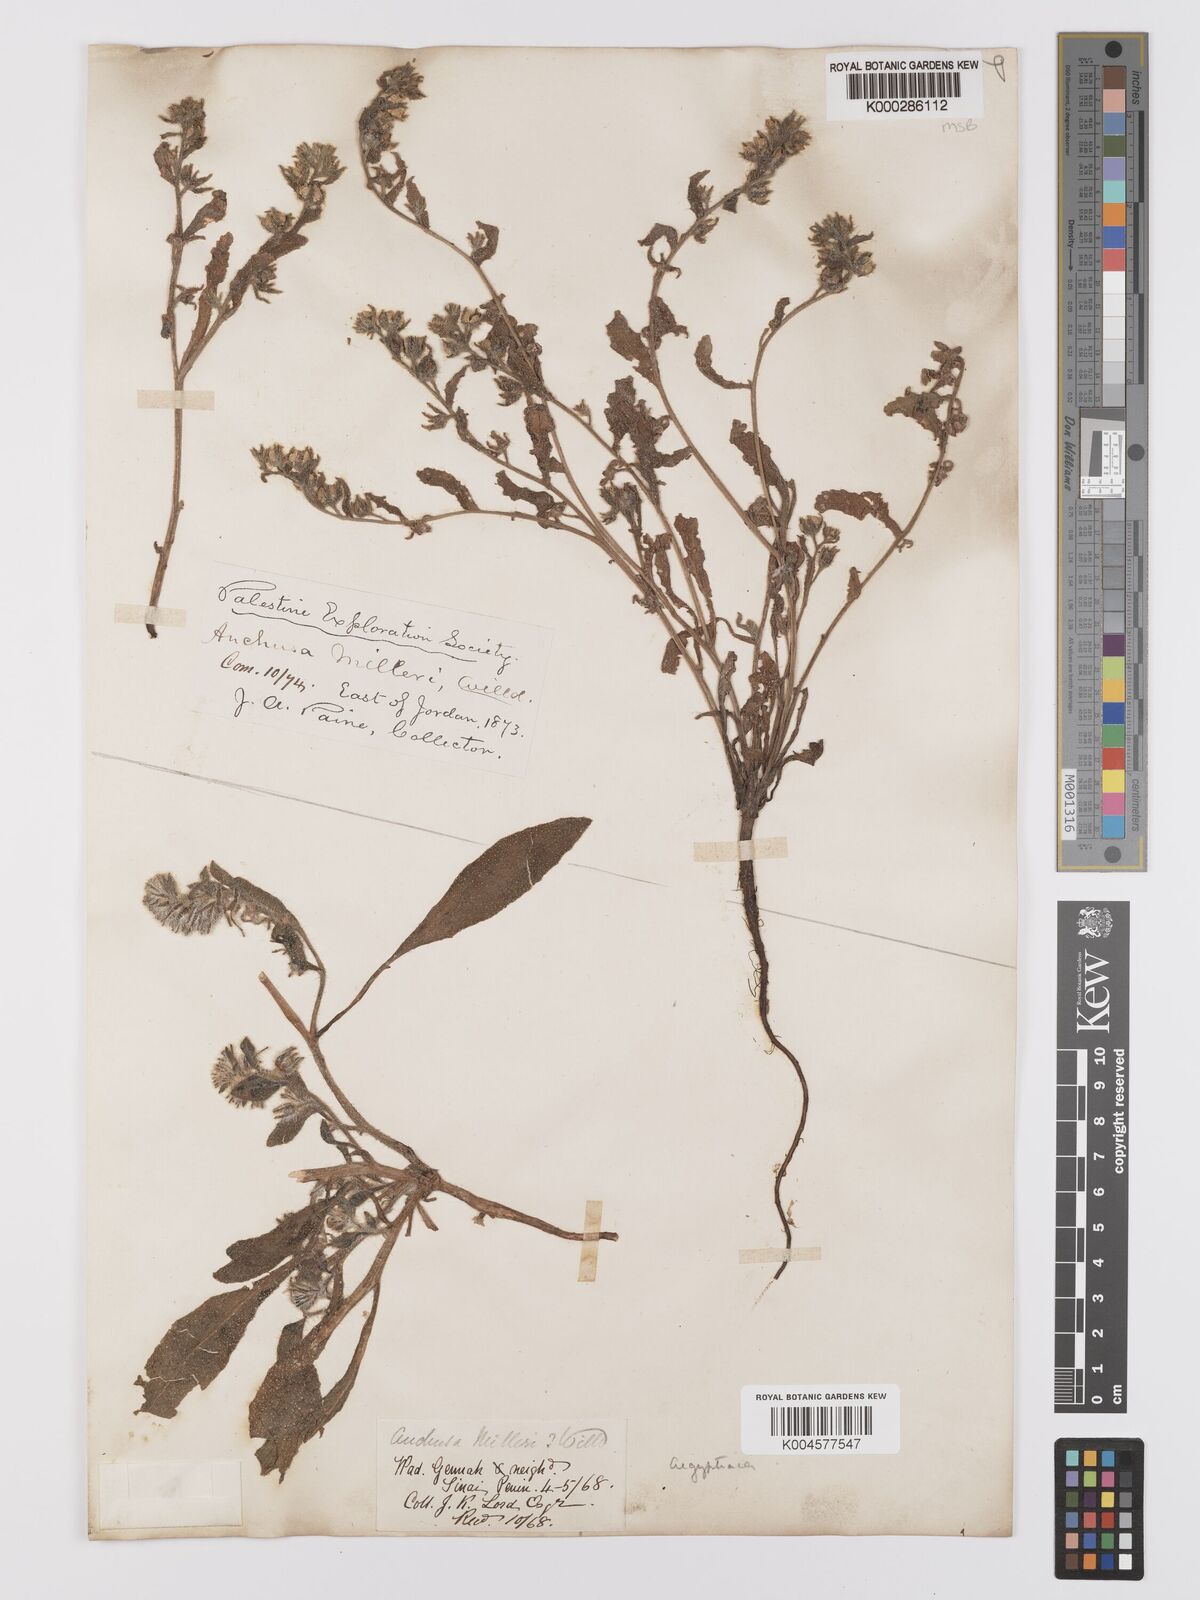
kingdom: Plantae
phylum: Tracheophyta
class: Magnoliopsida
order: Boraginales
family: Boraginaceae
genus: Anchusa
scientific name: Anchusa milleri
